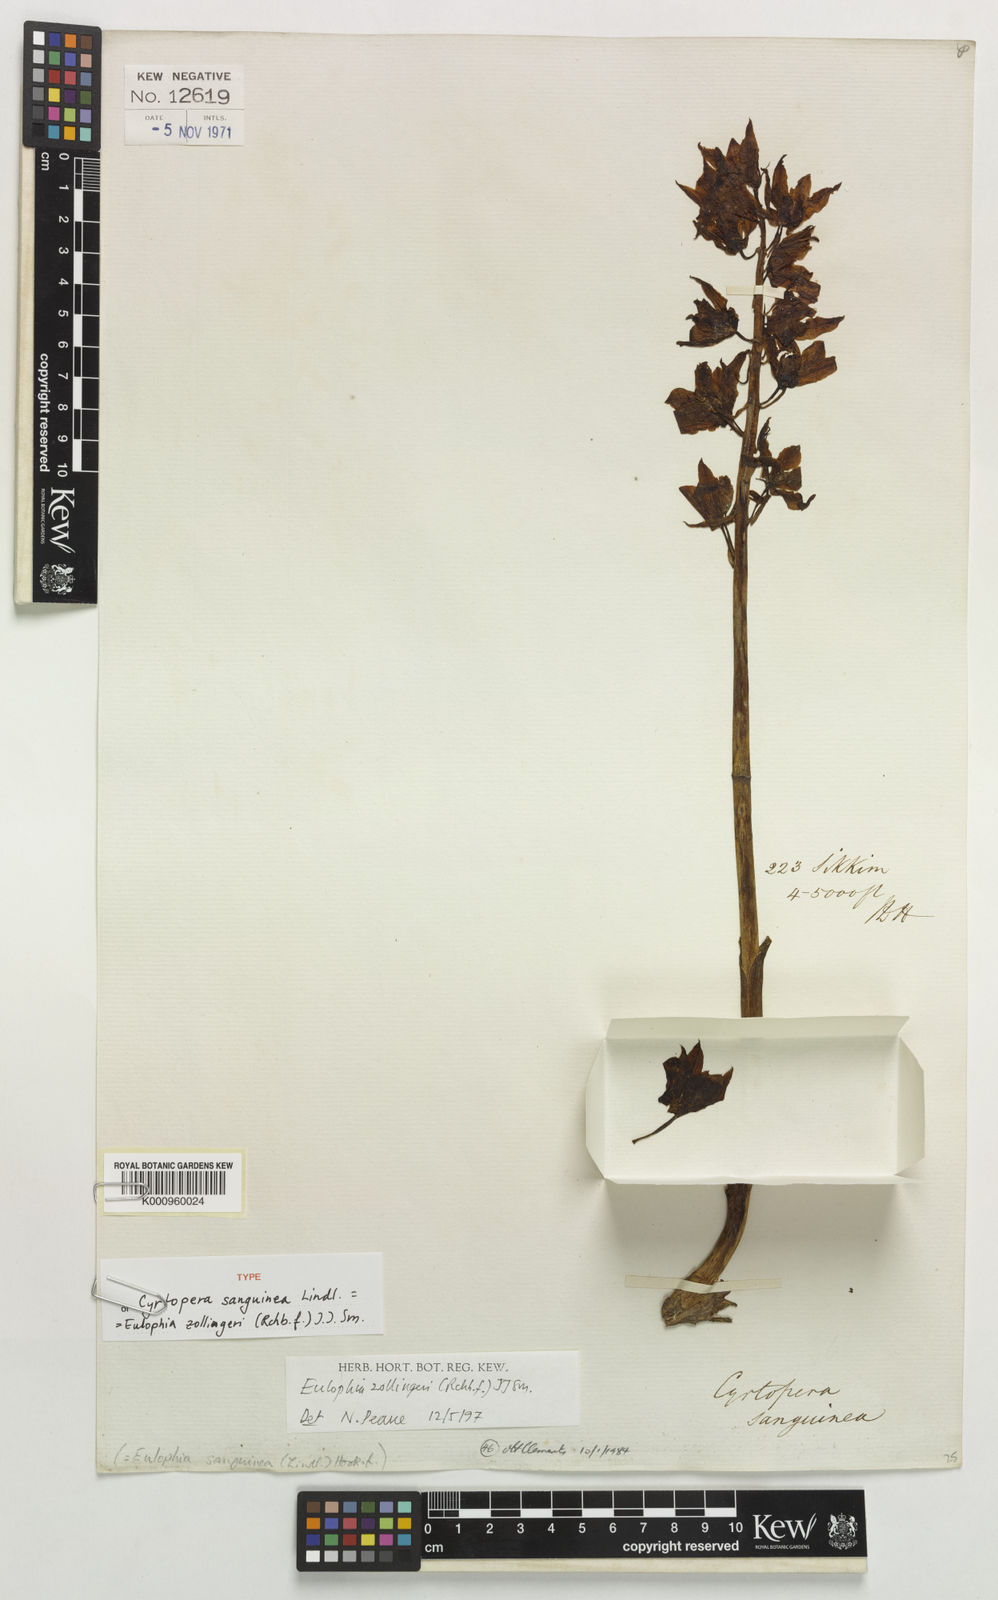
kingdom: Plantae
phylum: Tracheophyta
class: Liliopsida
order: Asparagales
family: Orchidaceae
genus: Eulophia
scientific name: Eulophia zollingeri
